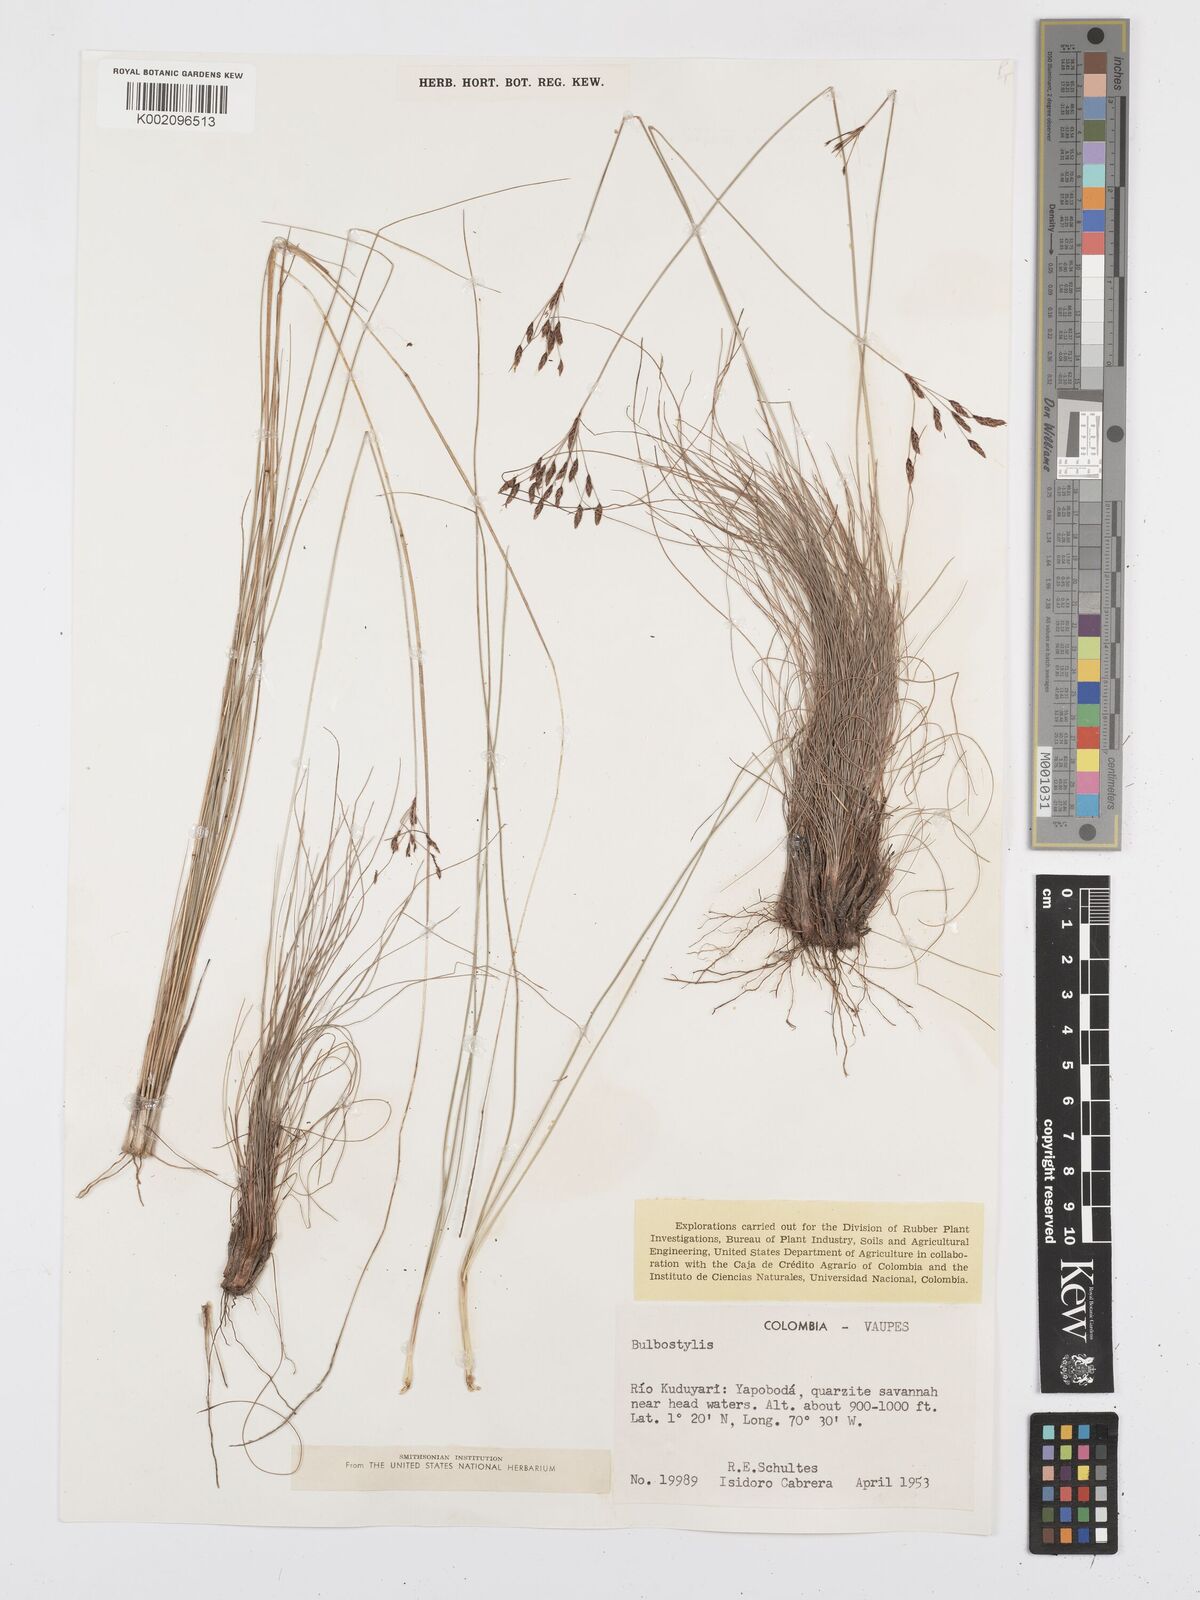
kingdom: Plantae
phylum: Tracheophyta
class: Liliopsida
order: Poales
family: Cyperaceae
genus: Bulbostylis
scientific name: Bulbostylis
